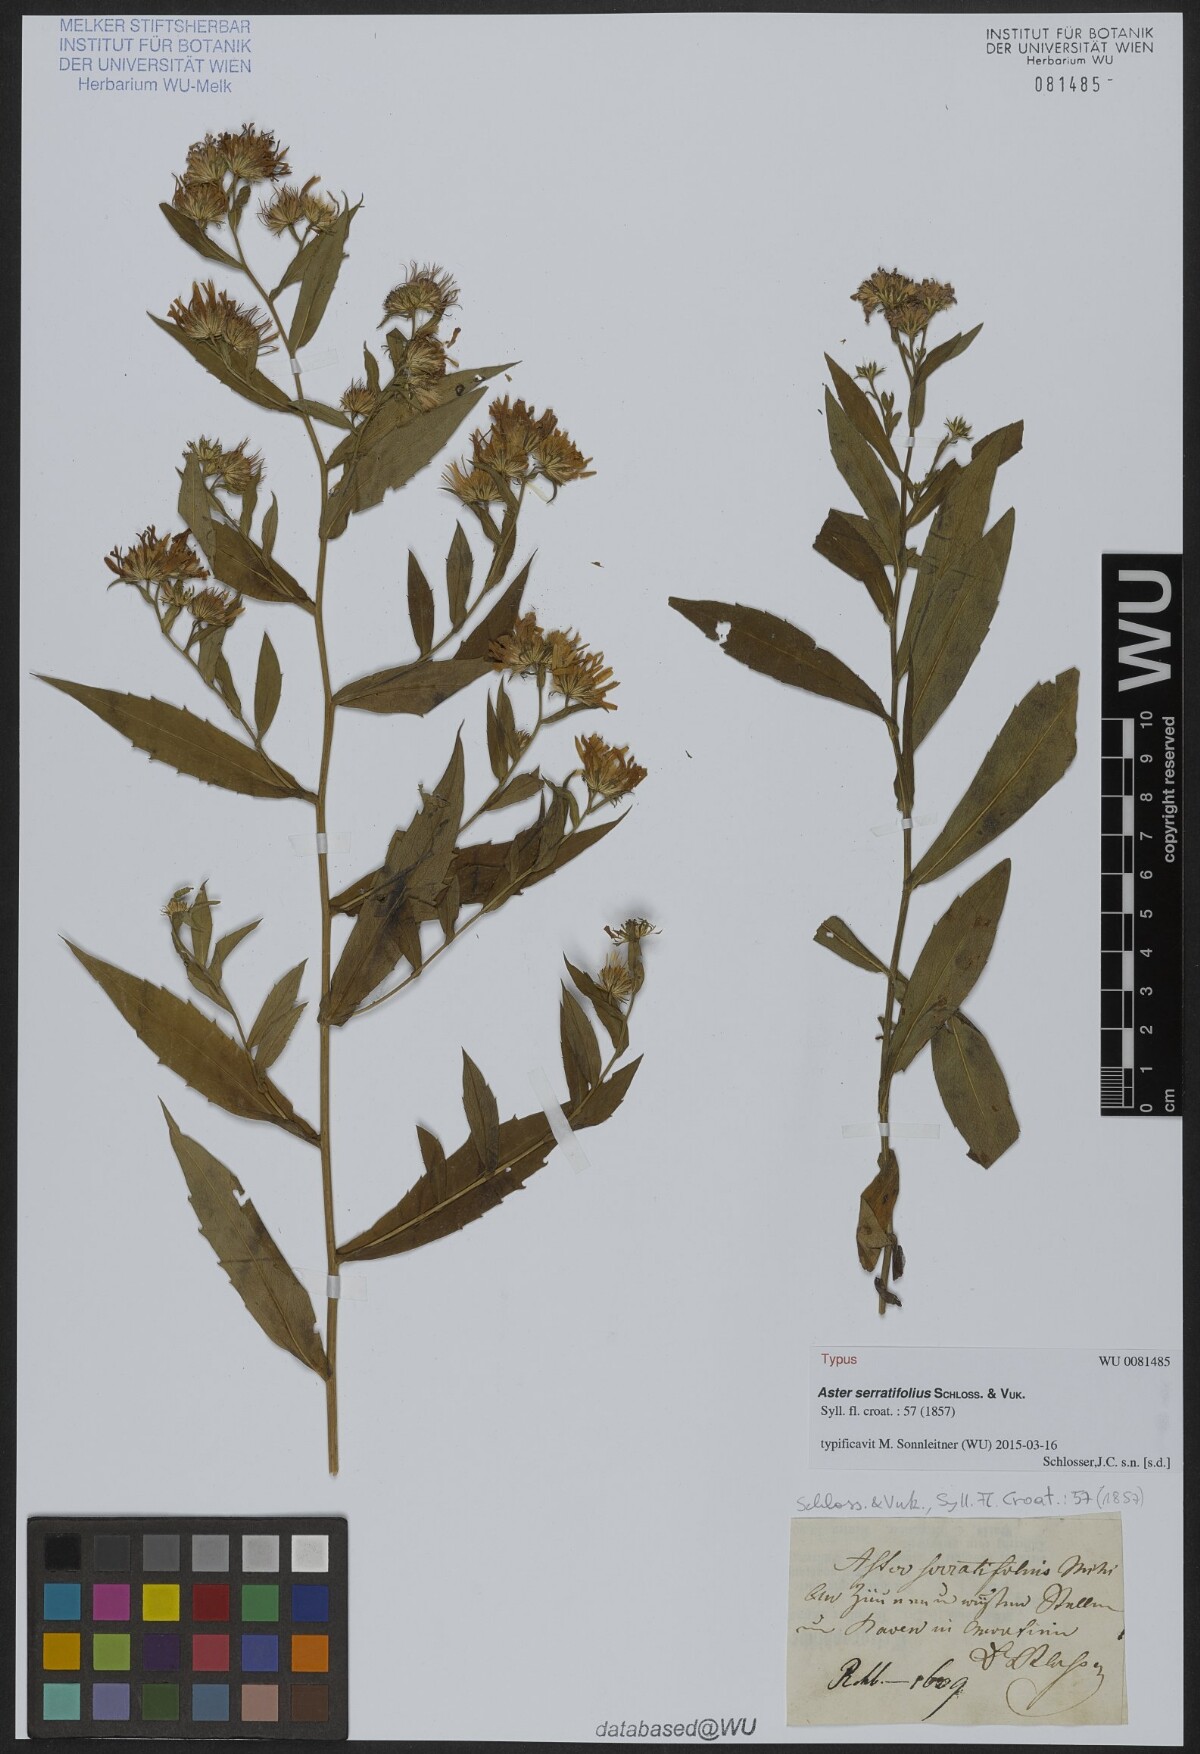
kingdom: Plantae
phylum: Tracheophyta
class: Magnoliopsida
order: Asterales
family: Asteraceae
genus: Symphyotrichum
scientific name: Symphyotrichum salignum
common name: Common michaelmas daisy
